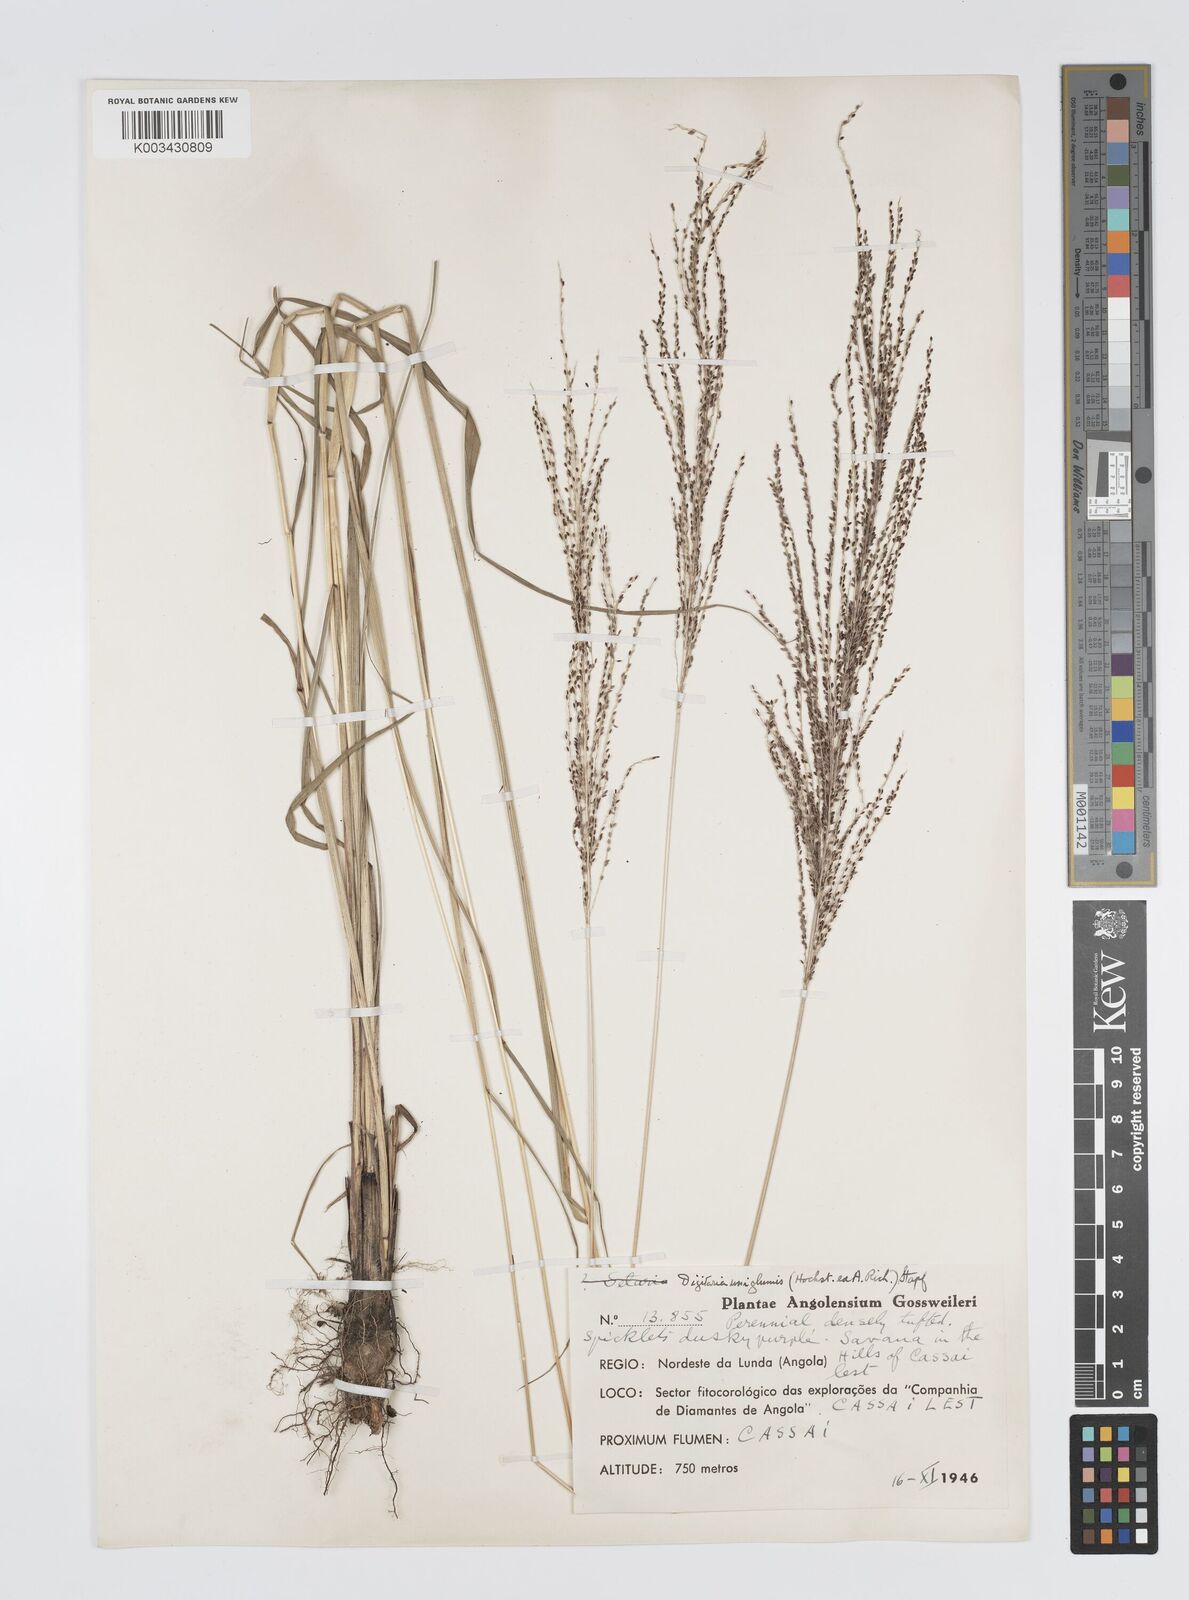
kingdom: Plantae
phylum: Tracheophyta
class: Liliopsida
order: Poales
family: Poaceae
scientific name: Poaceae
